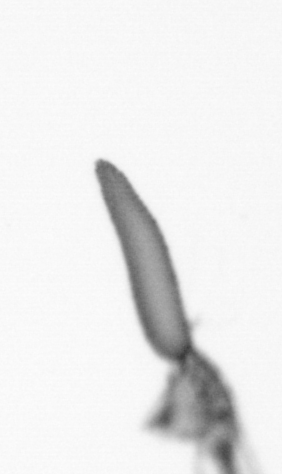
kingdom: Animalia
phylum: Arthropoda
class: Copepoda
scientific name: Copepoda
